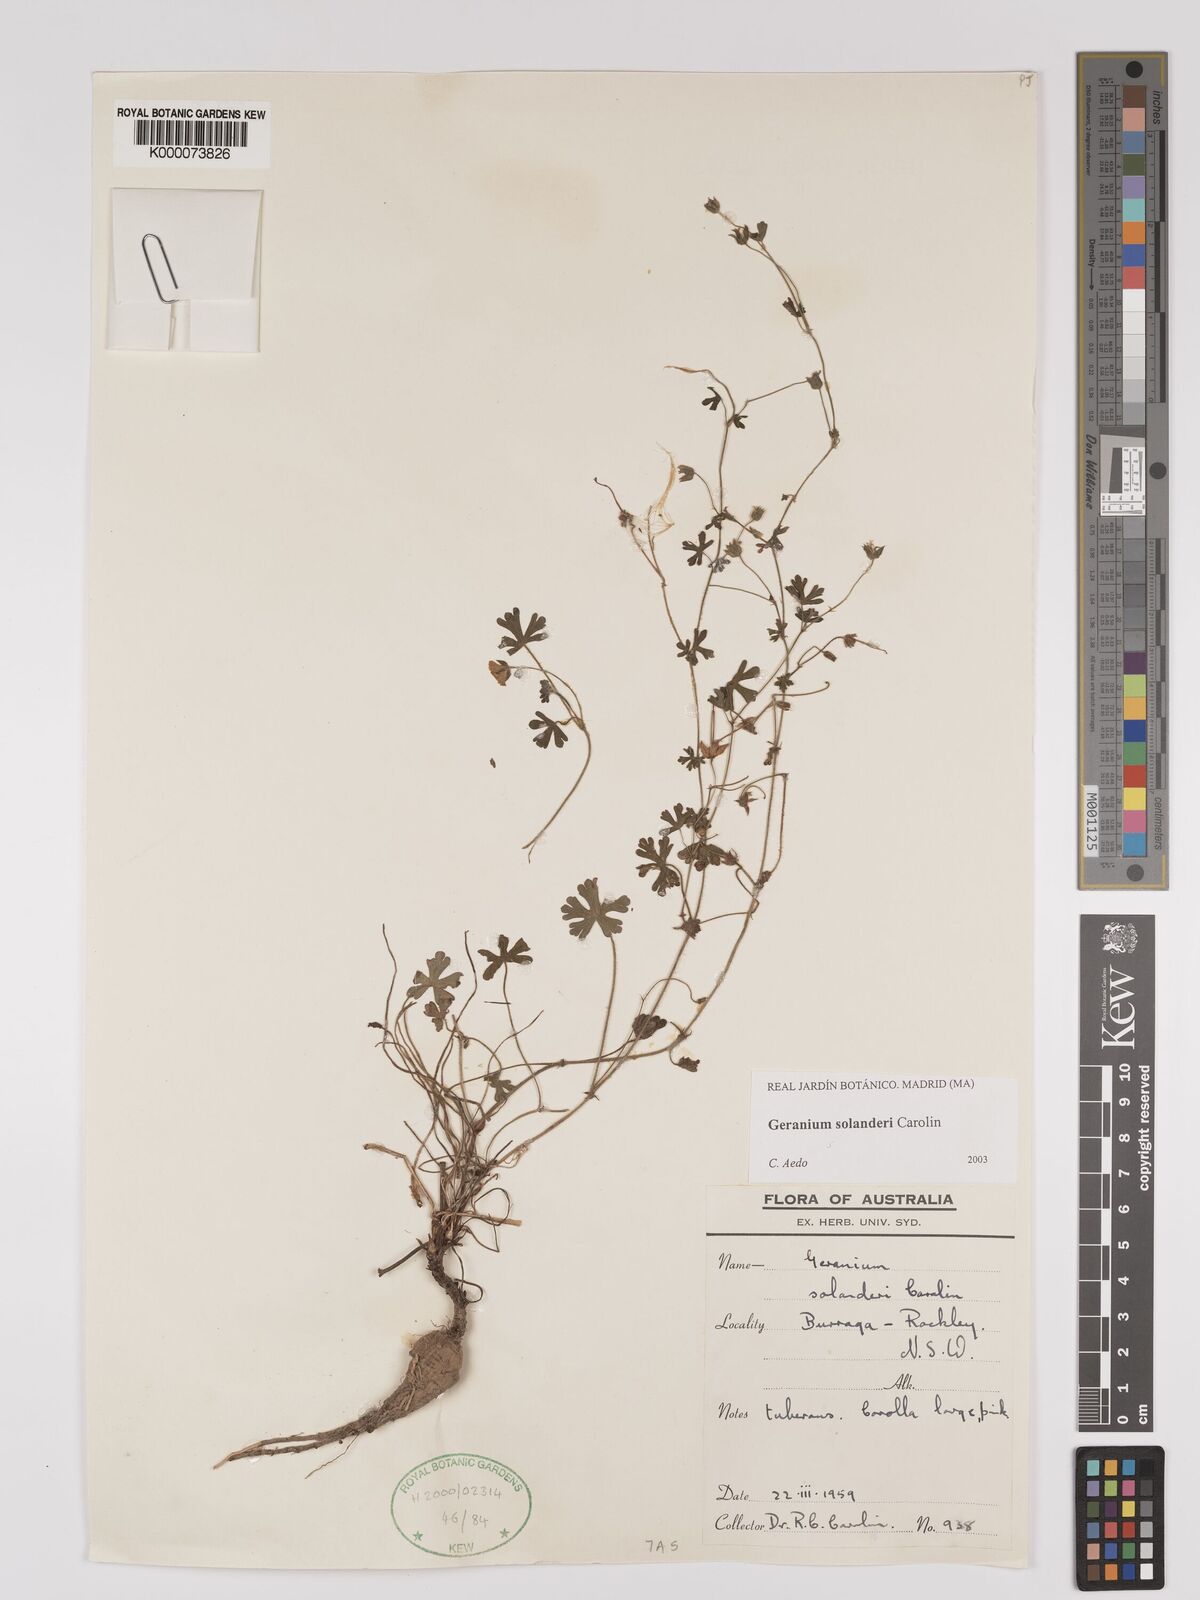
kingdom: Plantae
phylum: Tracheophyta
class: Magnoliopsida
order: Geraniales
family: Geraniaceae
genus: Geranium
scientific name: Geranium solanderi
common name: Solander's geranium
